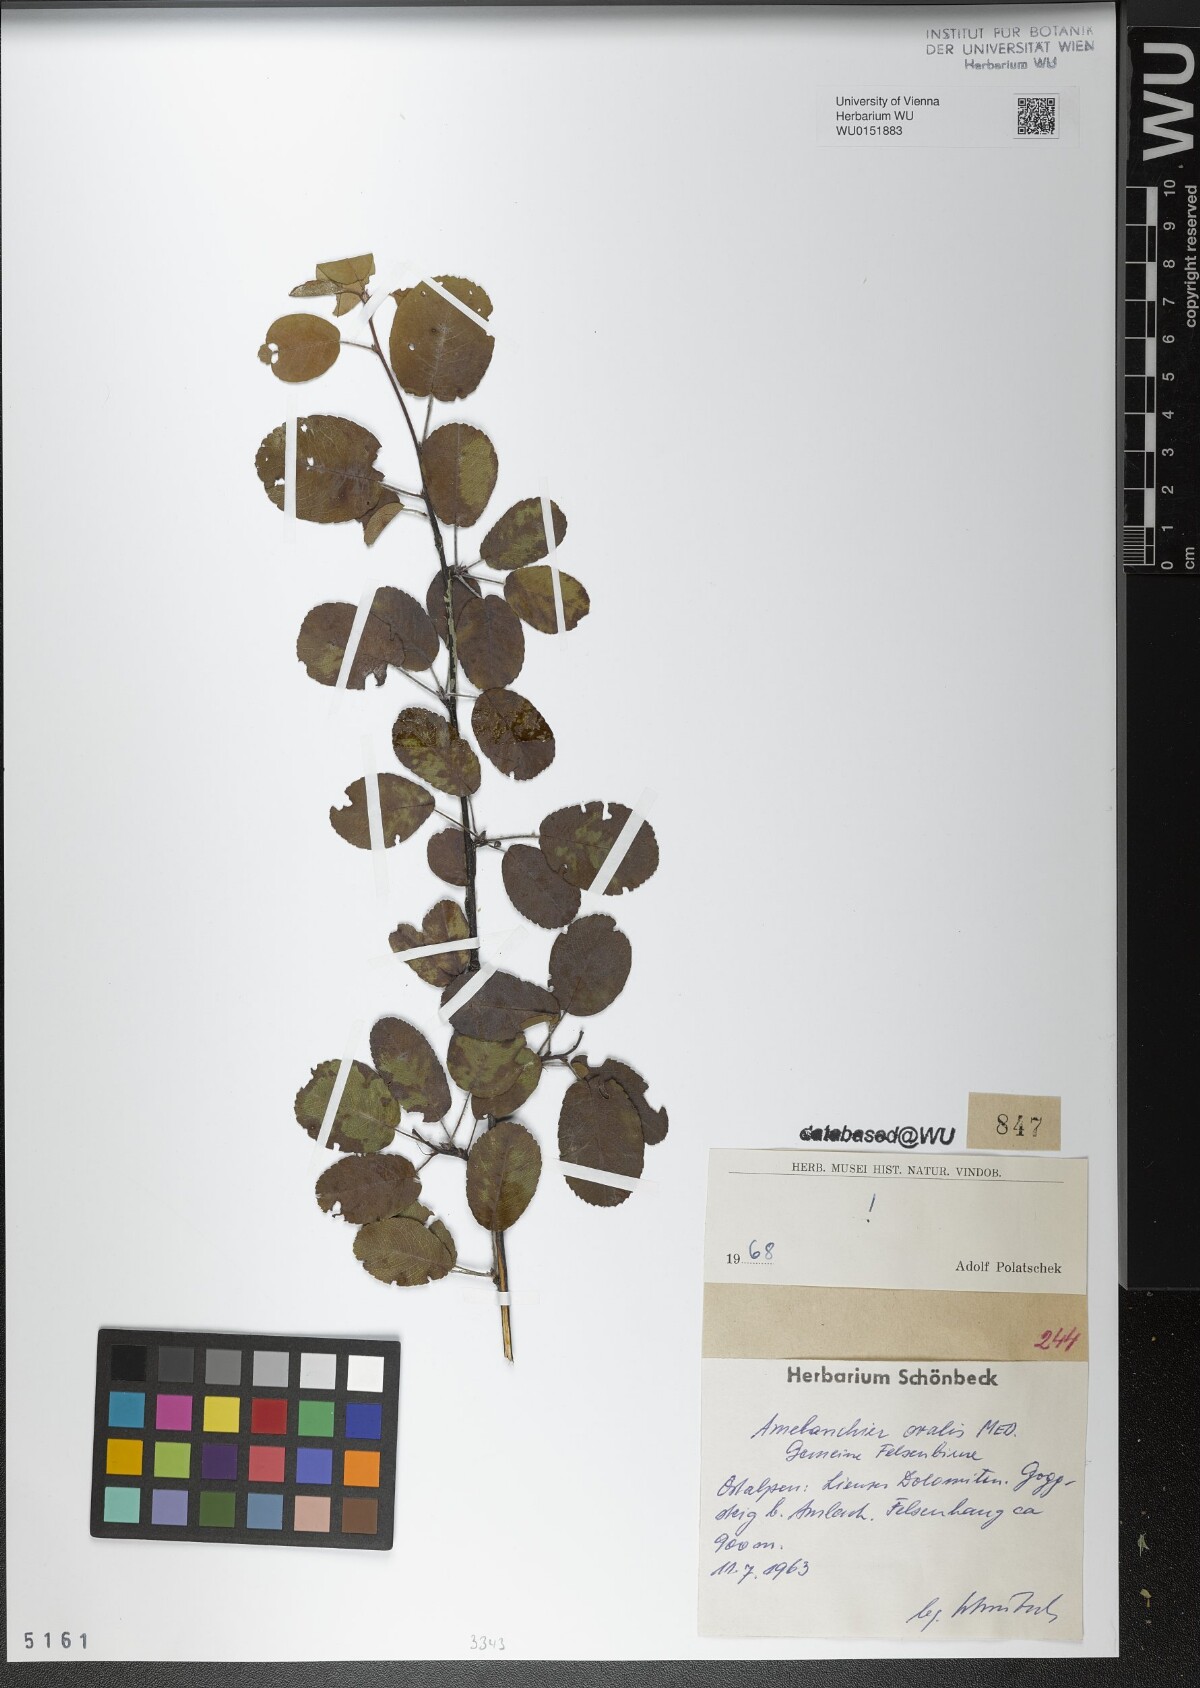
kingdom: Plantae
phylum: Tracheophyta
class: Magnoliopsida
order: Rosales
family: Rosaceae
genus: Amelanchier
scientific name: Amelanchier ovalis
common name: Serviceberry
